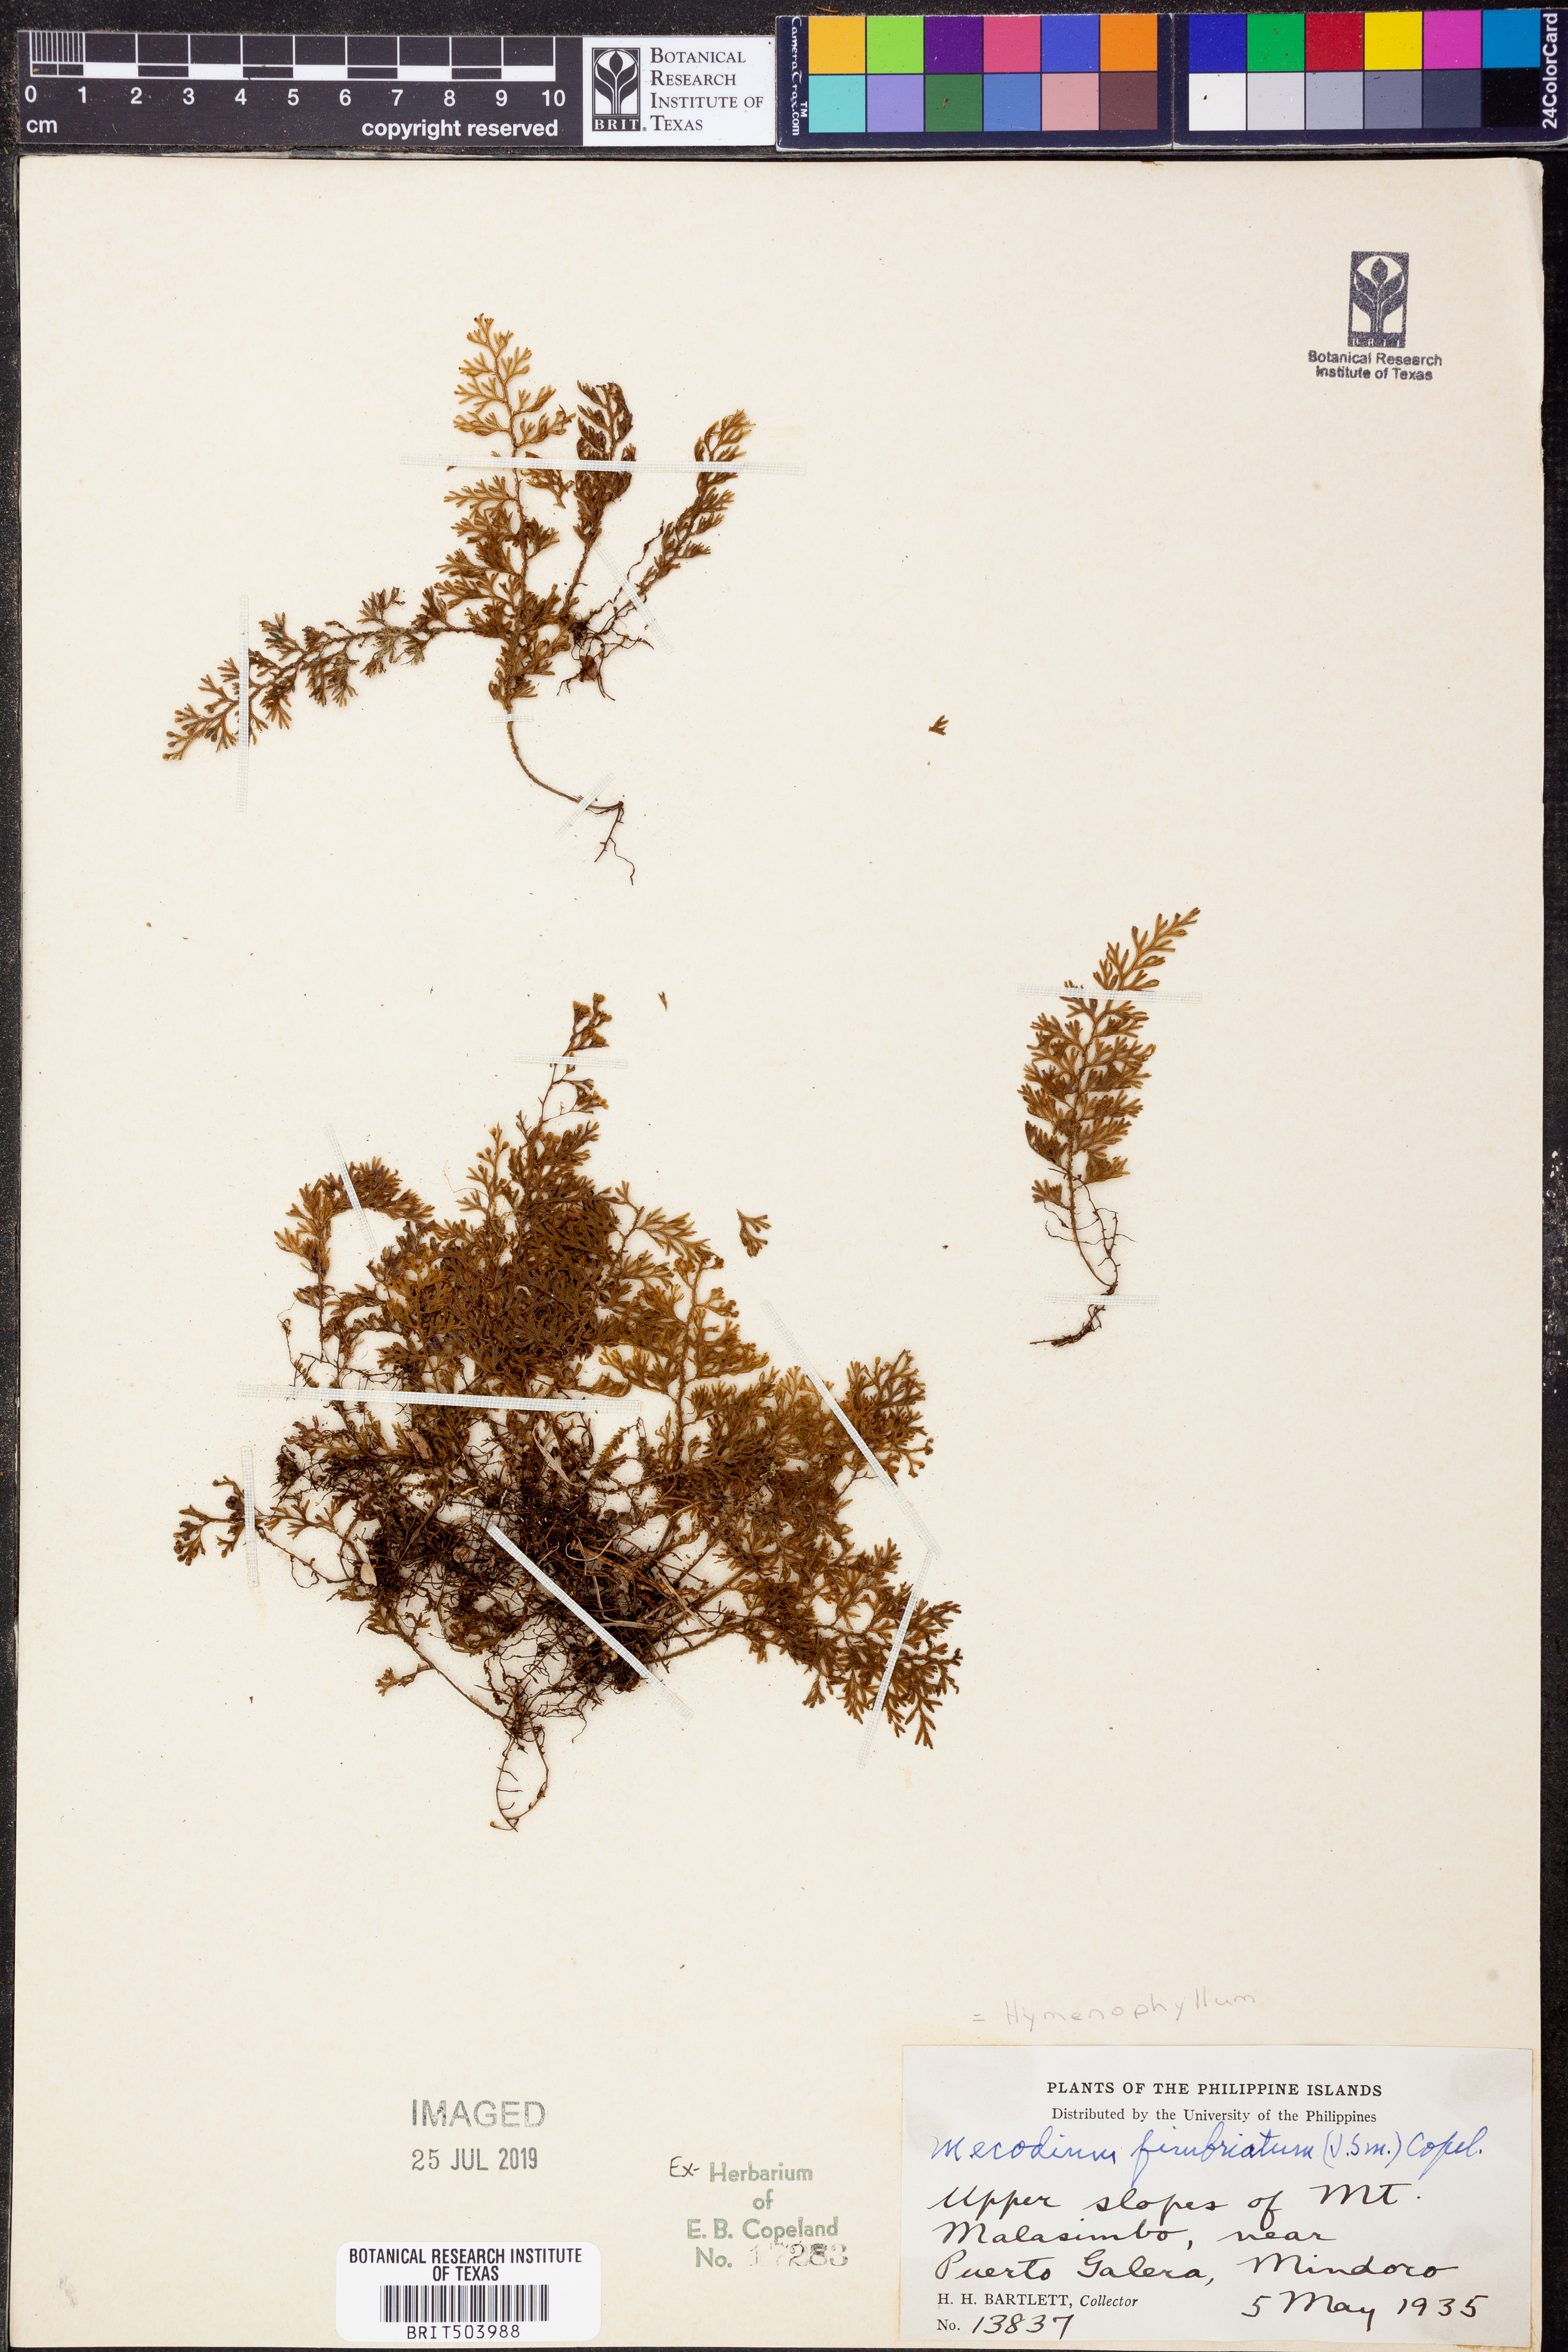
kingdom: Plantae
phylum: Tracheophyta
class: Polypodiopsida
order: Hymenophyllales
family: Hymenophyllaceae
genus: Hymenophyllum
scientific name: Hymenophyllum fimbriatum
